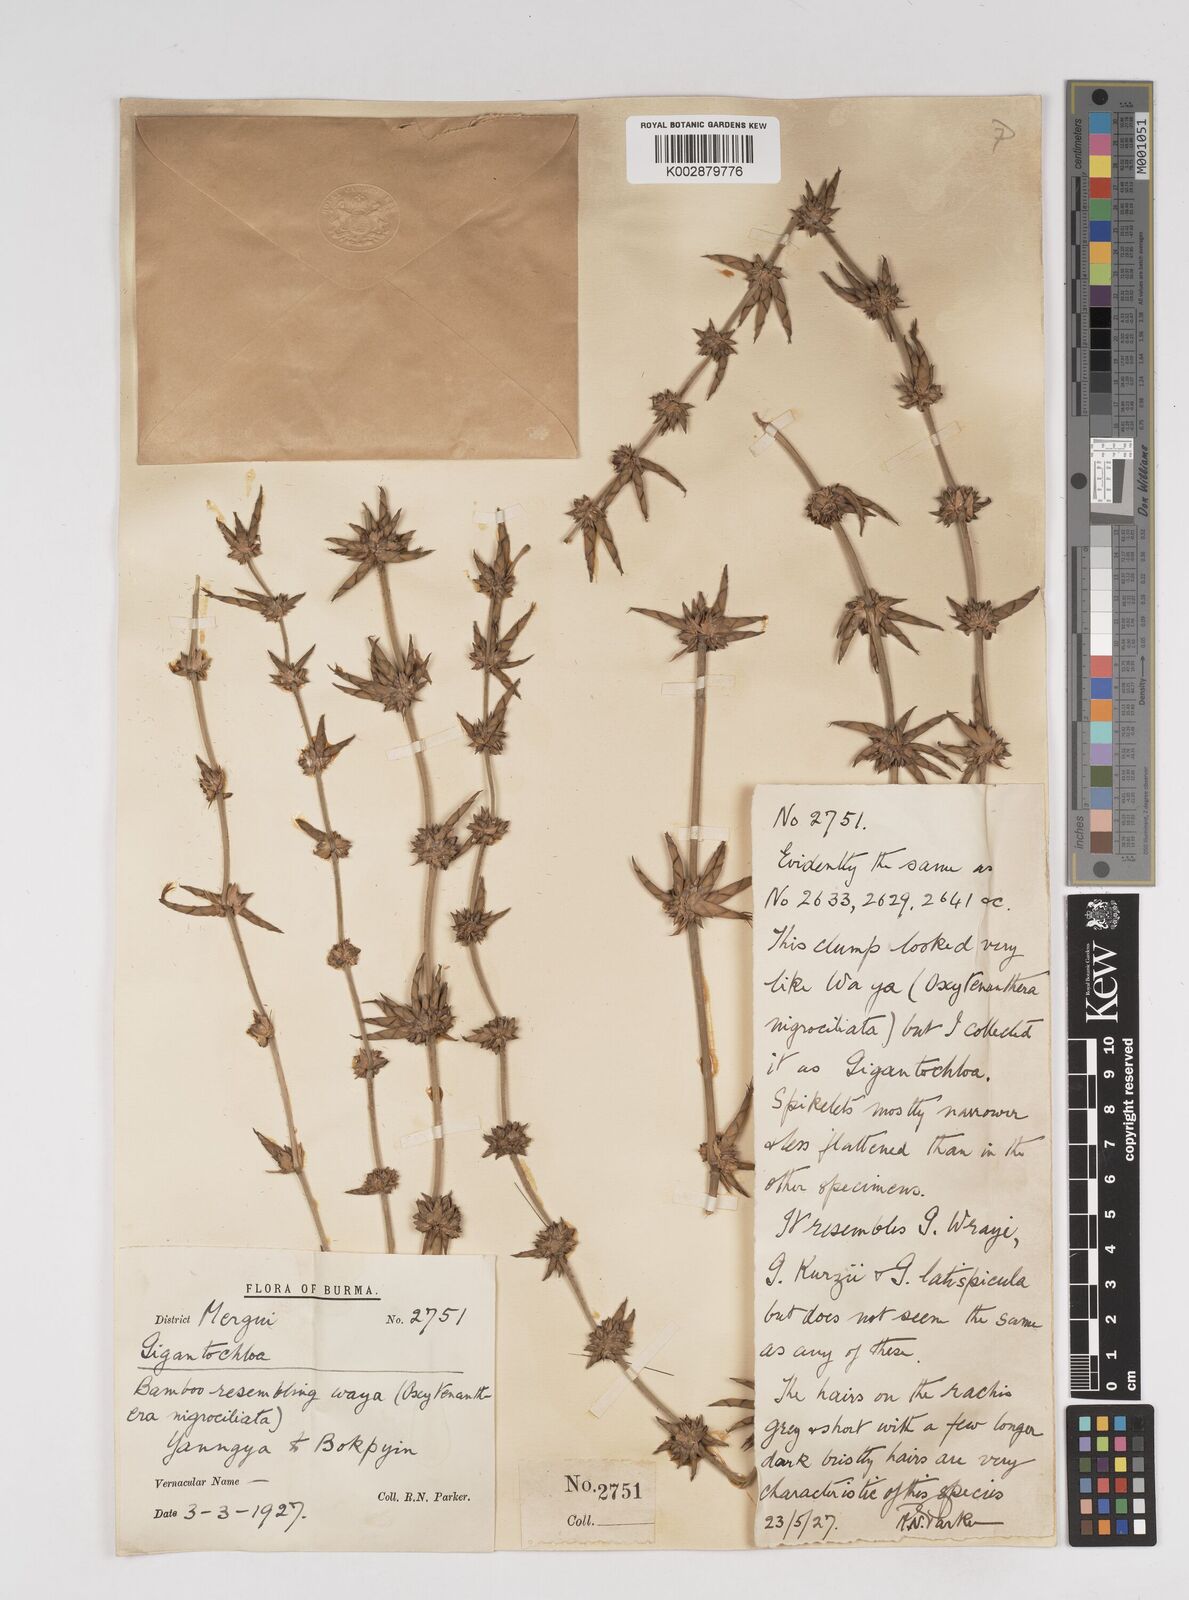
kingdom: Plantae
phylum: Tracheophyta
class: Liliopsida
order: Poales
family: Poaceae
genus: Gigantochloa
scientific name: Gigantochloa compressa
